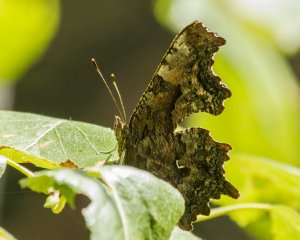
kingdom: Animalia
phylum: Arthropoda
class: Insecta
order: Lepidoptera
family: Nymphalidae
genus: Polygonia
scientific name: Polygonia faunus
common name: Green Comma
